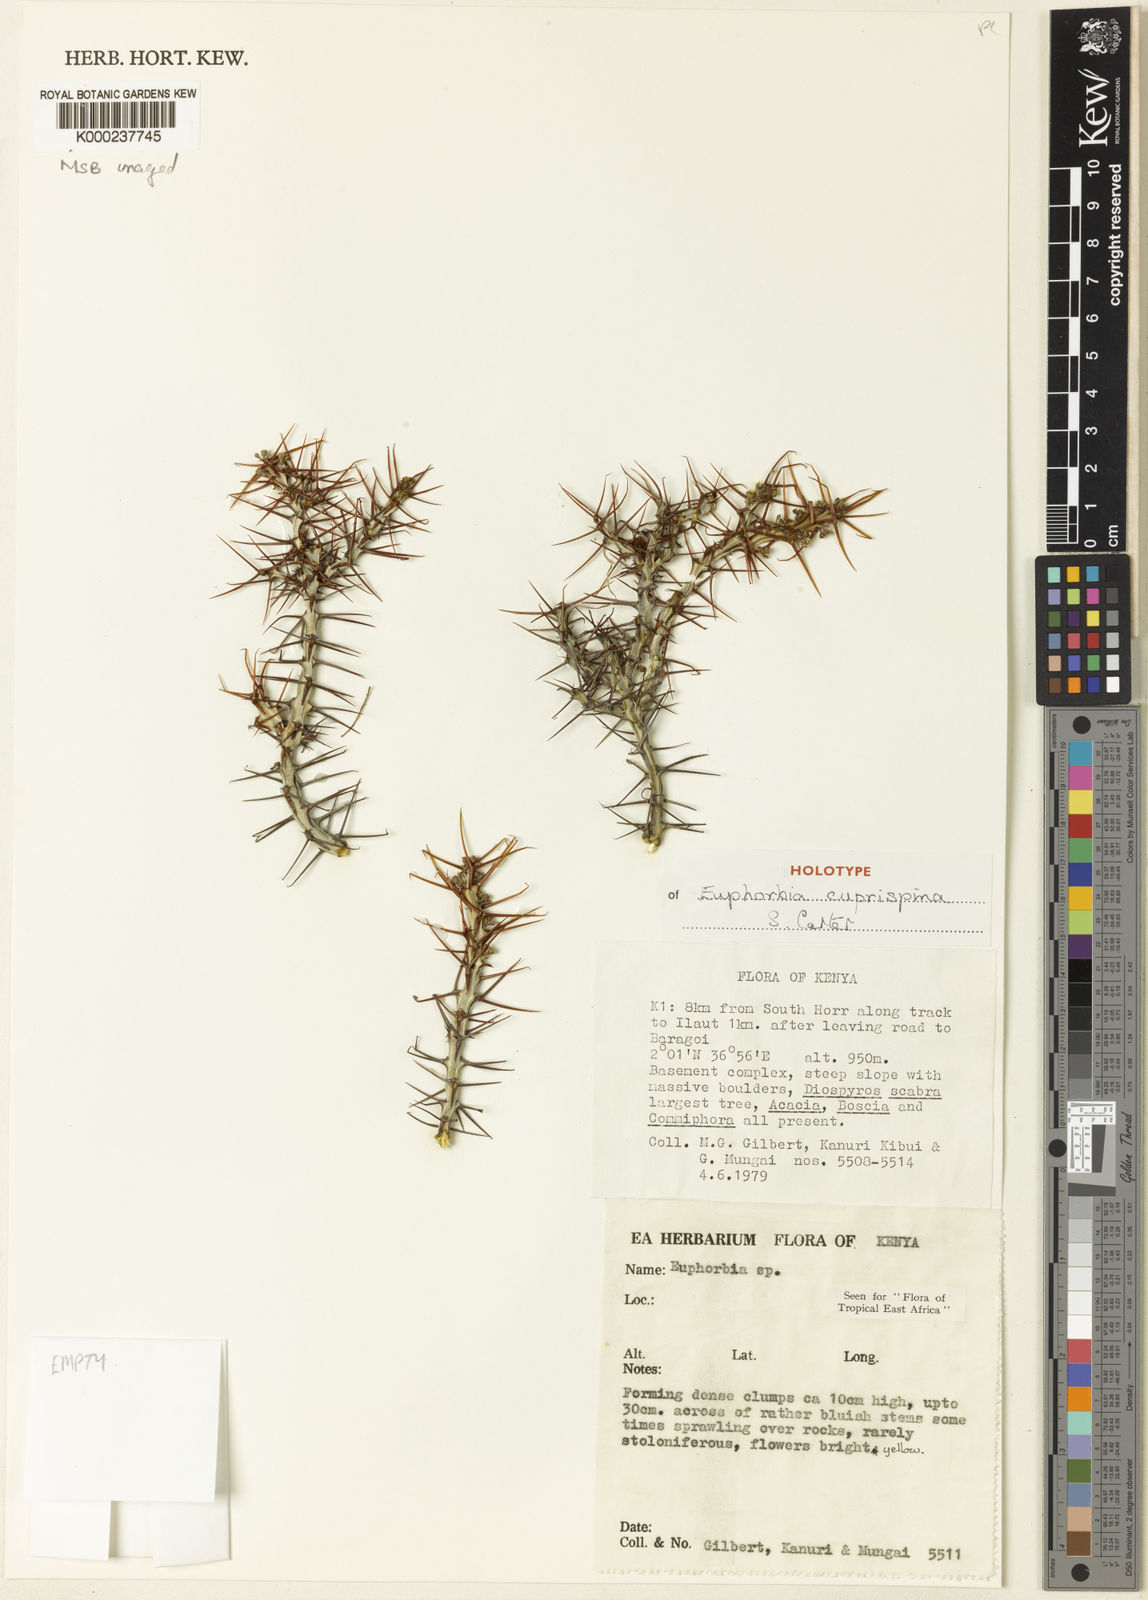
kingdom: Plantae
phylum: Tracheophyta
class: Magnoliopsida
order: Malpighiales
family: Euphorbiaceae
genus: Euphorbia
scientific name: Euphorbia cuprispina
